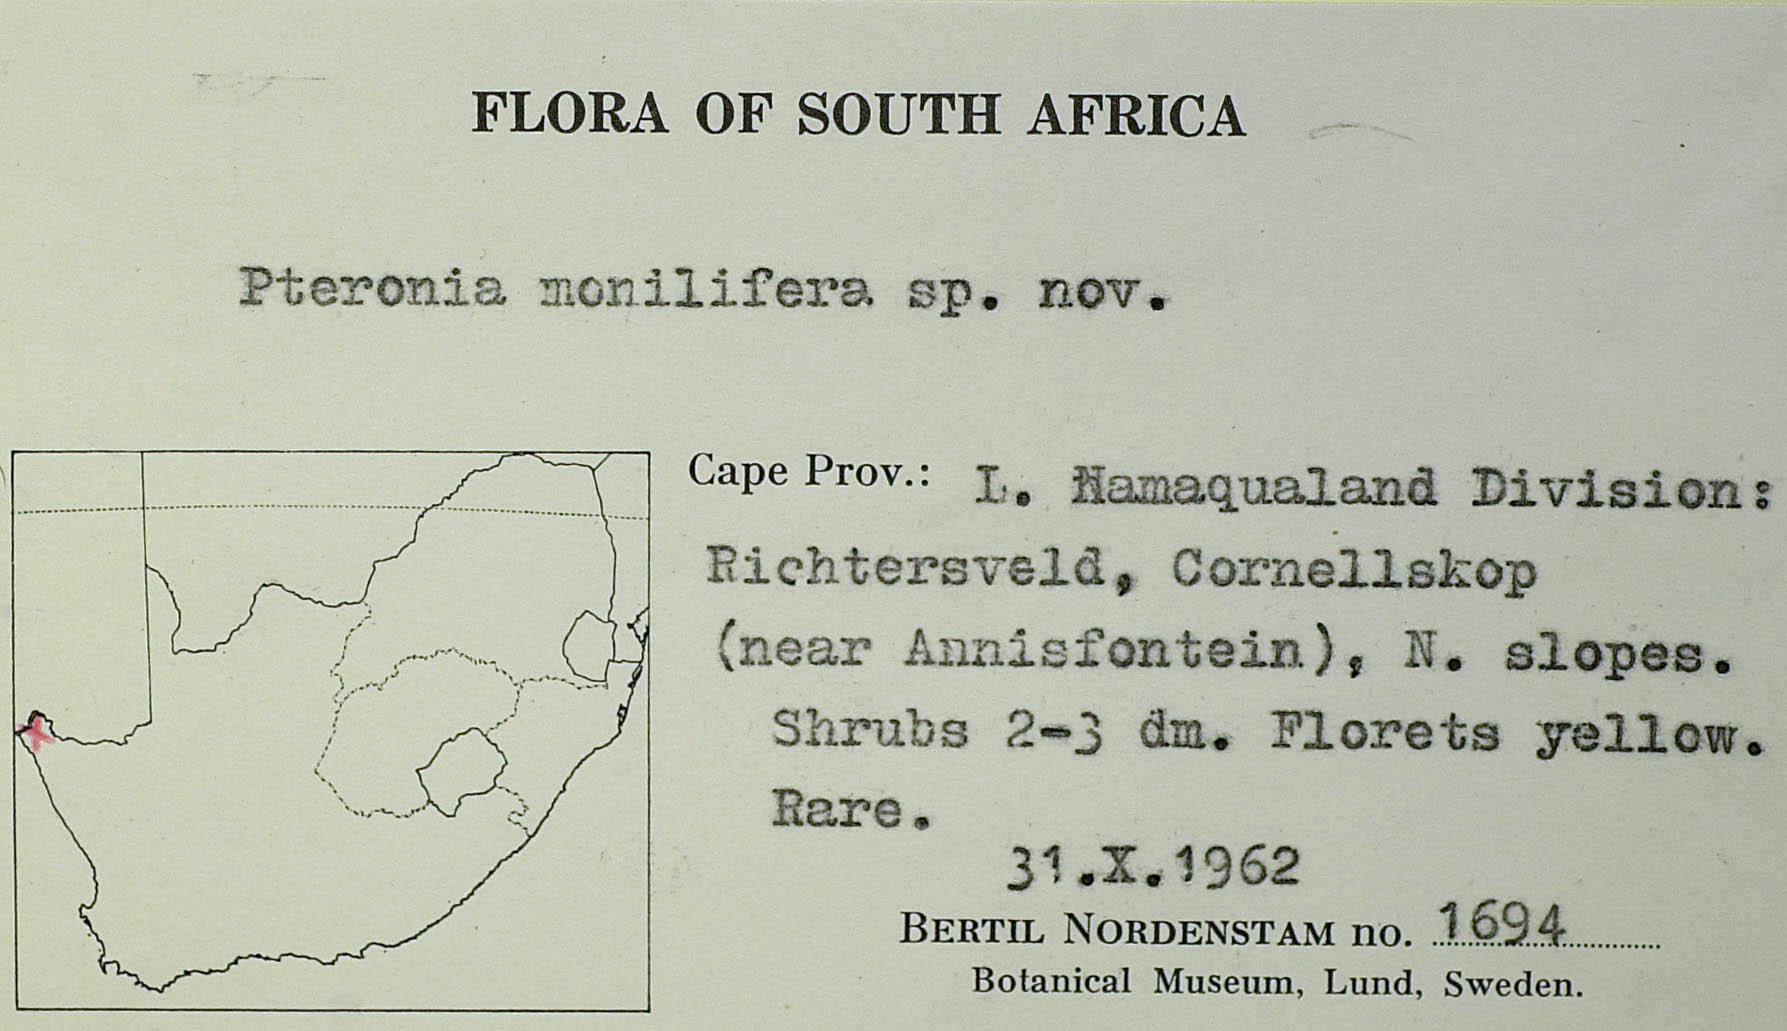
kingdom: Plantae
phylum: Tracheophyta
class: Magnoliopsida
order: Asterales
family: Asteraceae
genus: Pteronia
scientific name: Pteronia anisata
